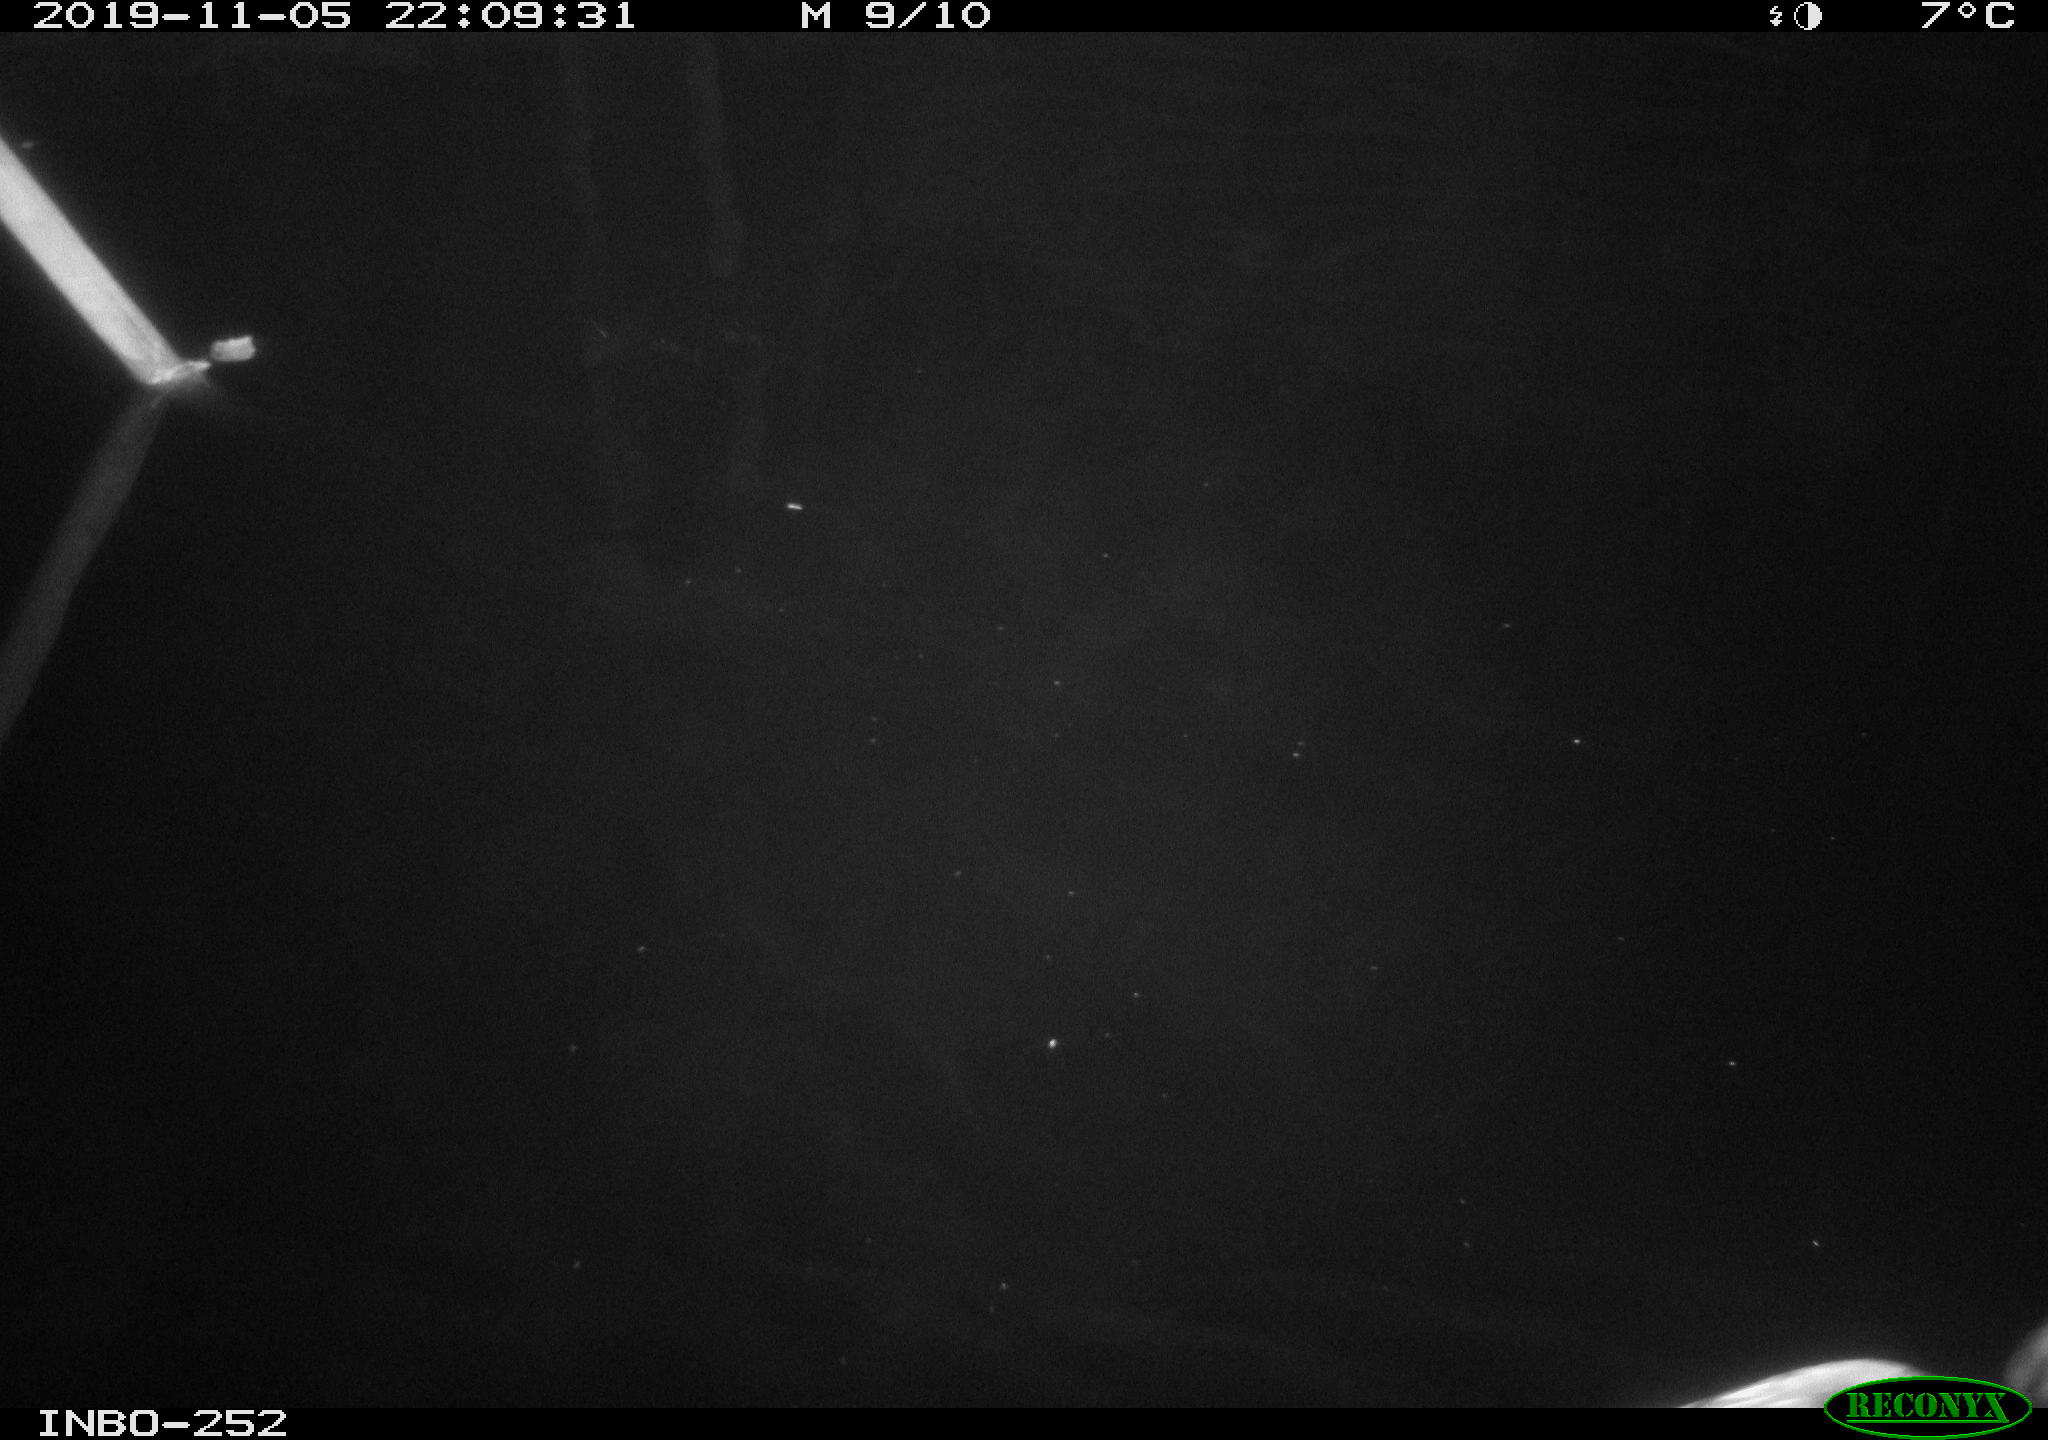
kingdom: Animalia
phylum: Chordata
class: Aves
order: Anseriformes
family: Anatidae
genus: Anas
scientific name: Anas platyrhynchos
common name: Mallard
